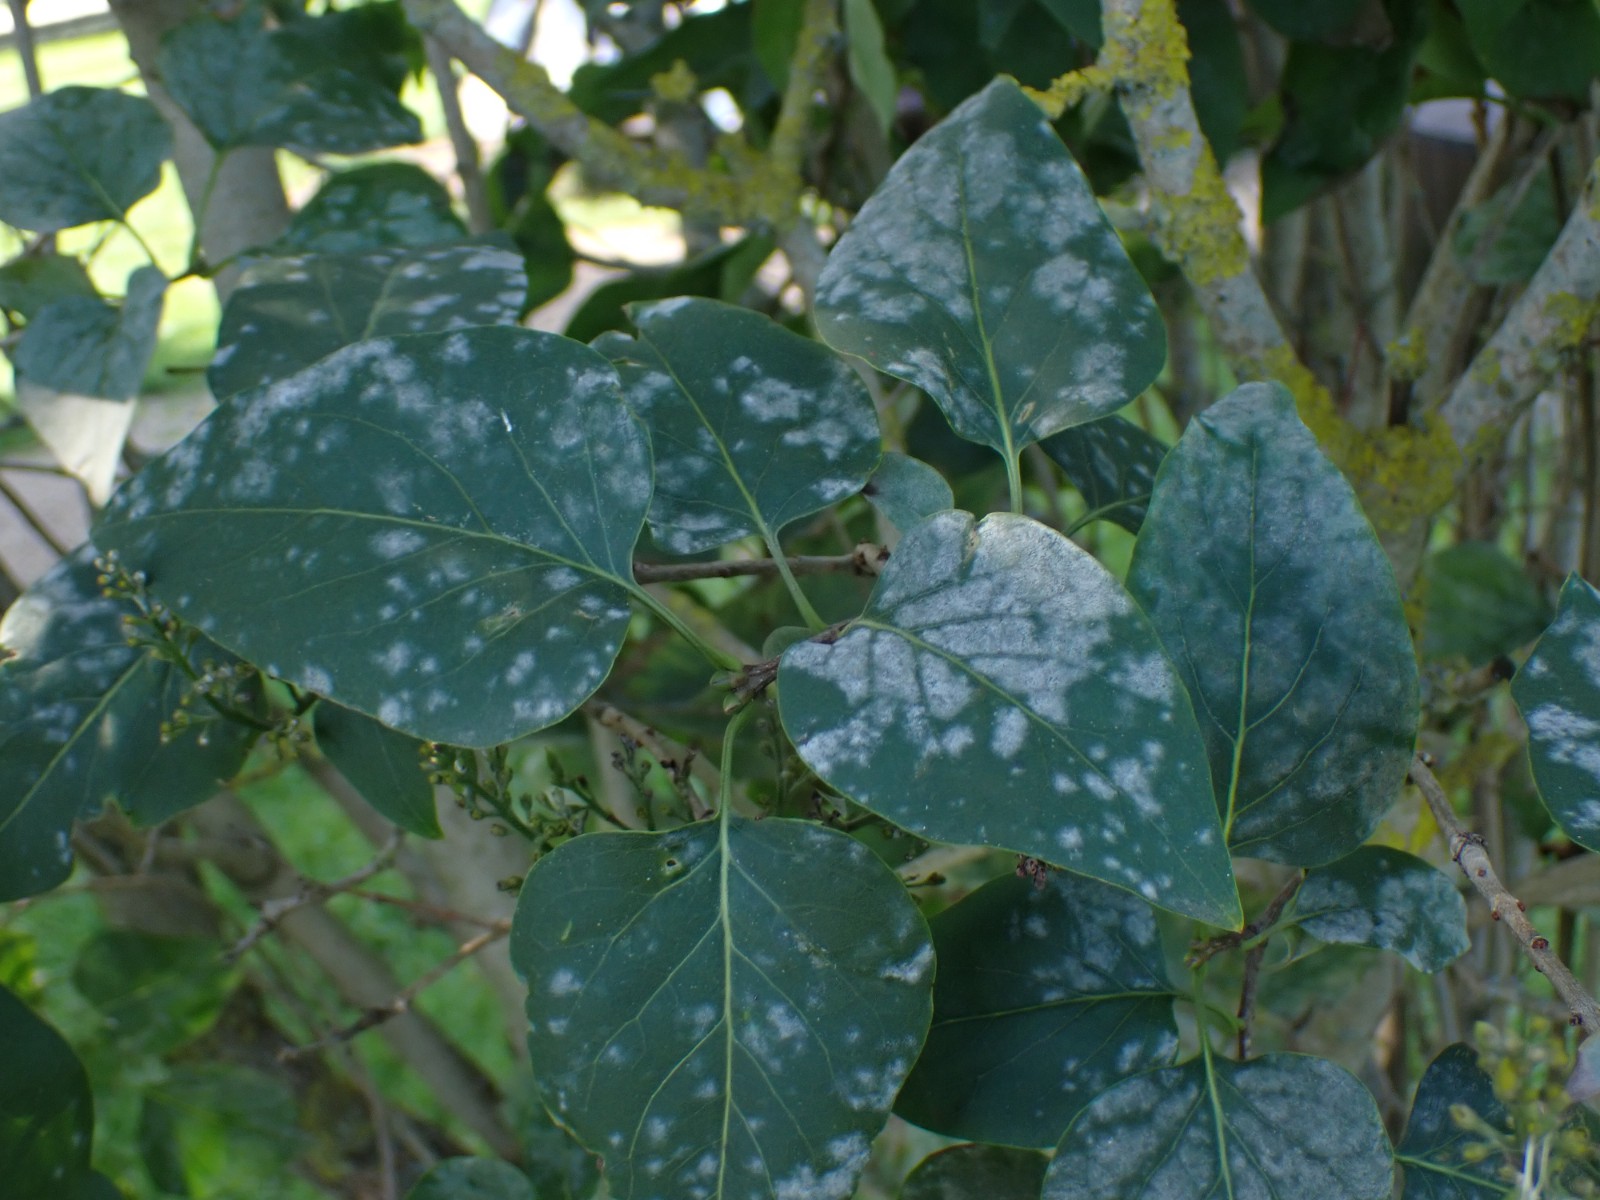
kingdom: Fungi
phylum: Ascomycota
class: Leotiomycetes
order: Helotiales
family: Erysiphaceae
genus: Erysiphe
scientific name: Erysiphe syringae-japonicae
